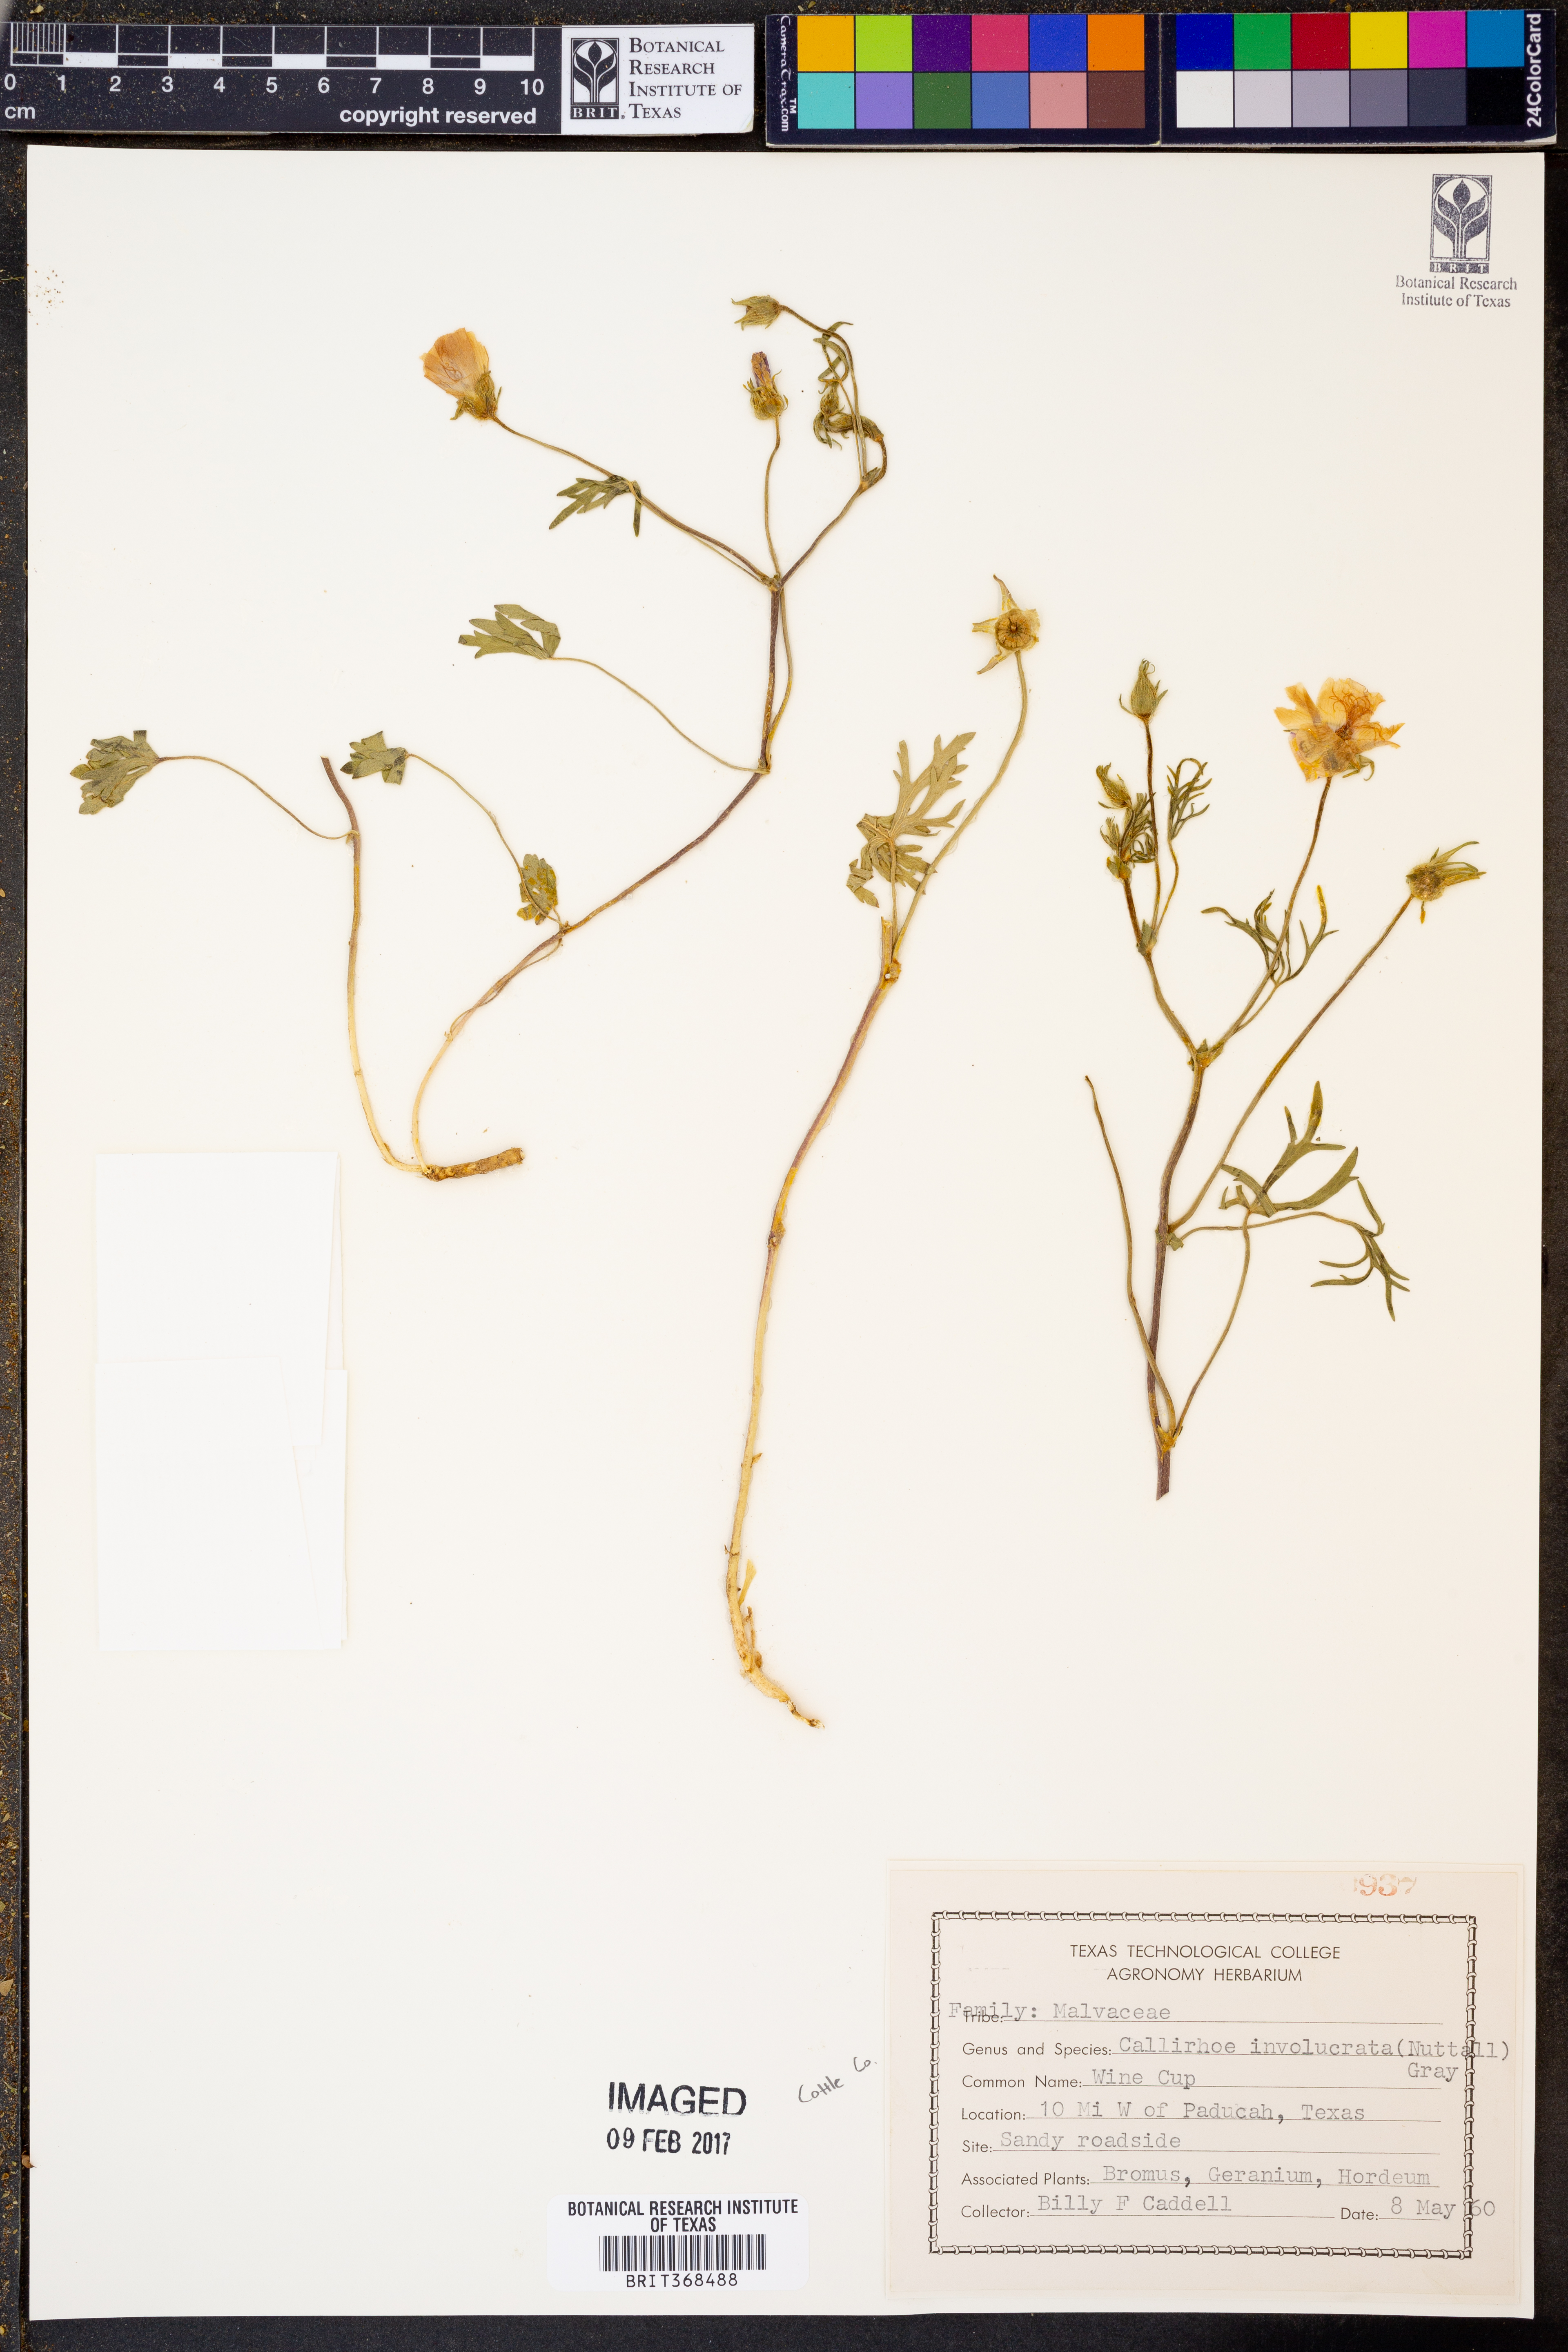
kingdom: Plantae
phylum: Tracheophyta
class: Magnoliopsida
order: Malvales
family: Malvaceae
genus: Callirhoe
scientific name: Callirhoe involucrata
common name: Purple poppy-mallow
